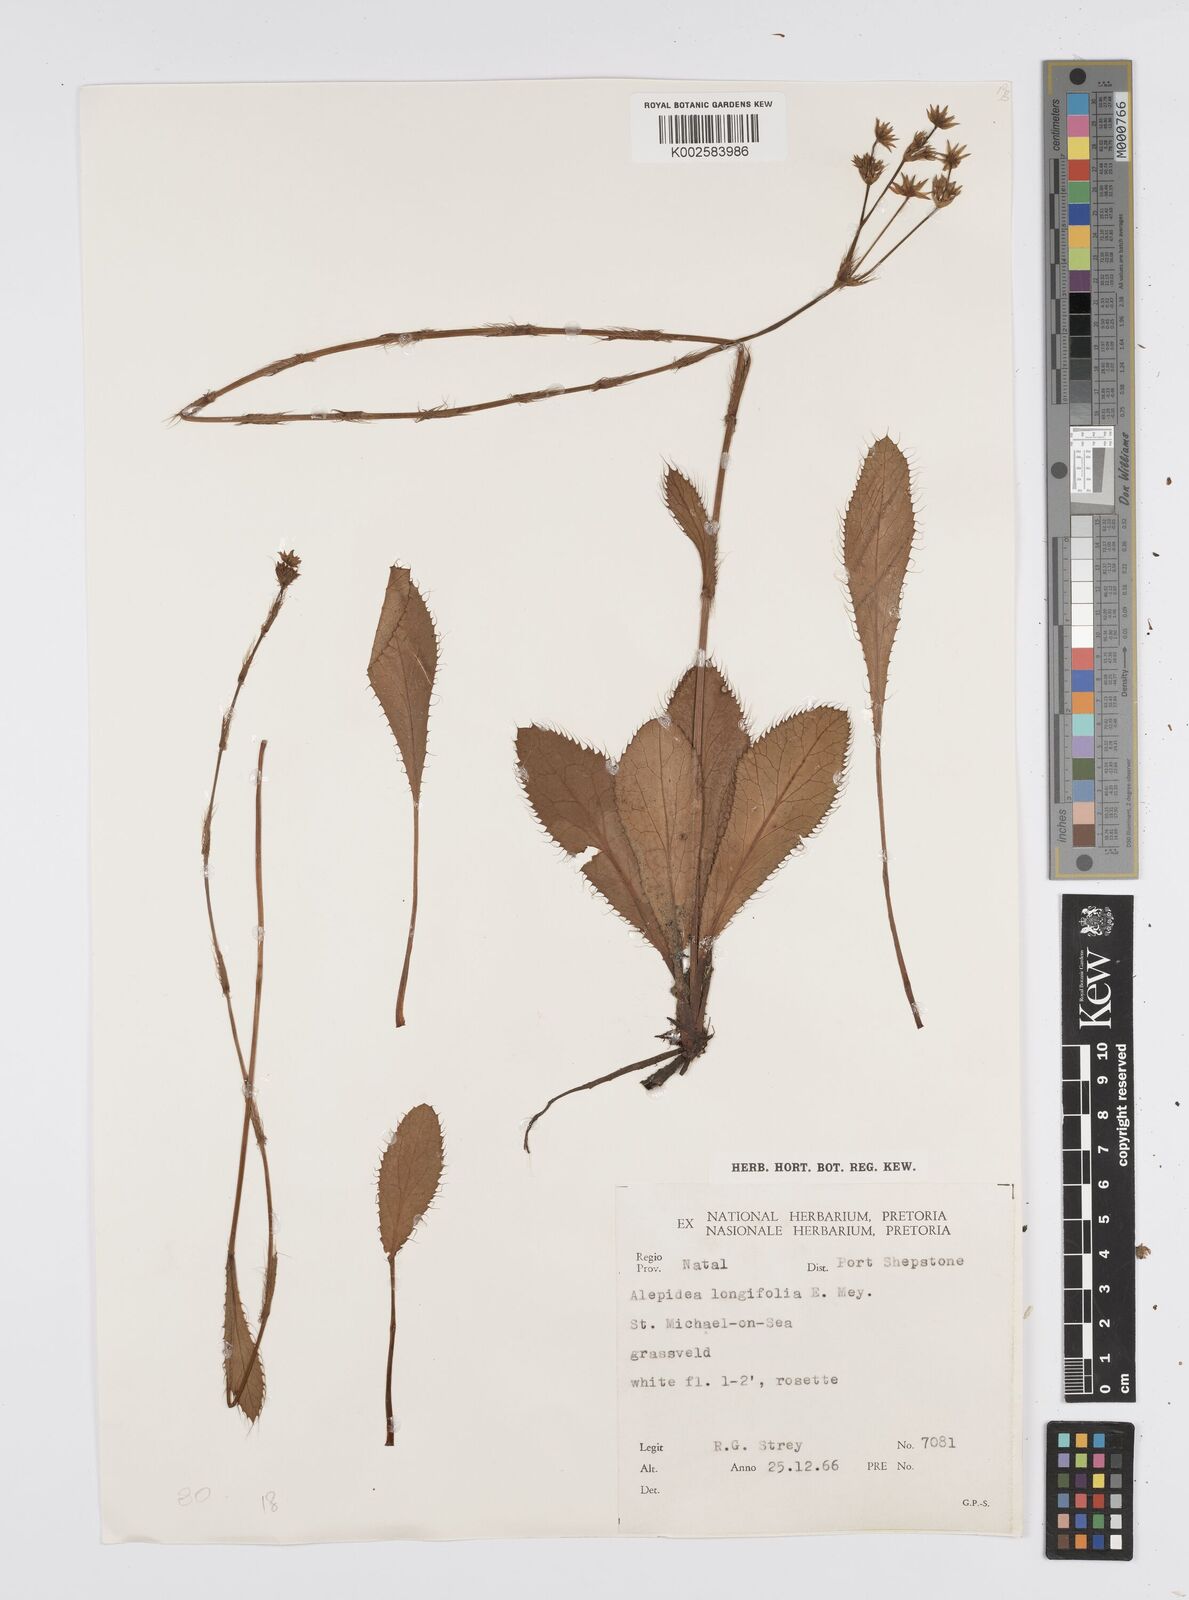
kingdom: Plantae
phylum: Tracheophyta
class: Magnoliopsida
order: Apiales
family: Apiaceae
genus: Alepidea
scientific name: Alepidea
